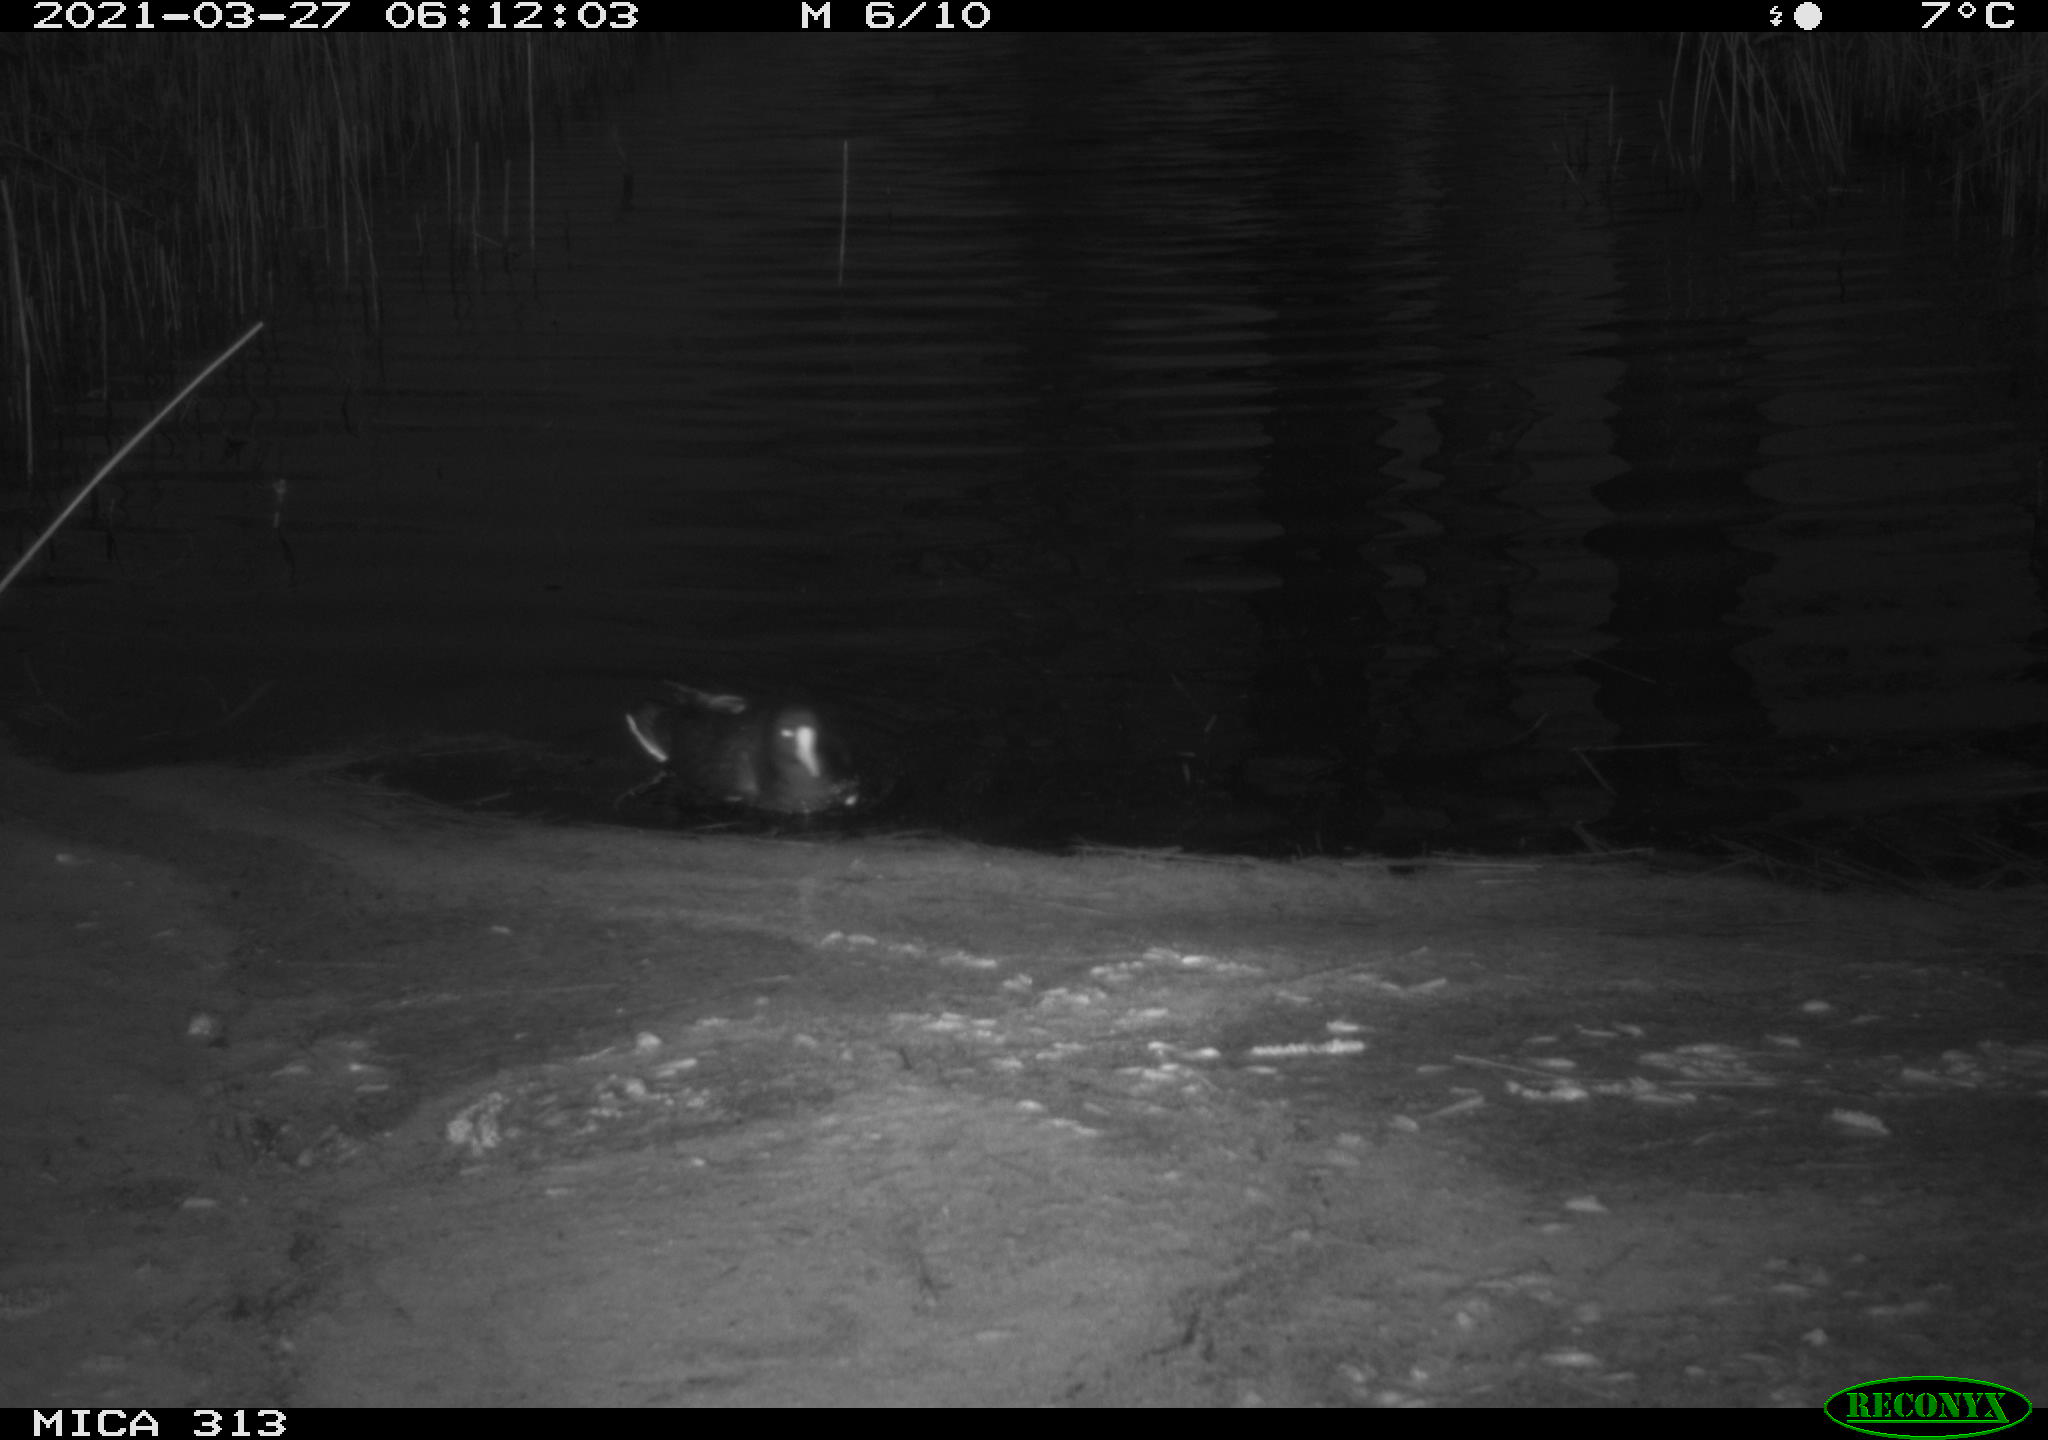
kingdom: Animalia
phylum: Chordata
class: Aves
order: Gruiformes
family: Rallidae
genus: Gallinula
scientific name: Gallinula chloropus
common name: Common moorhen
